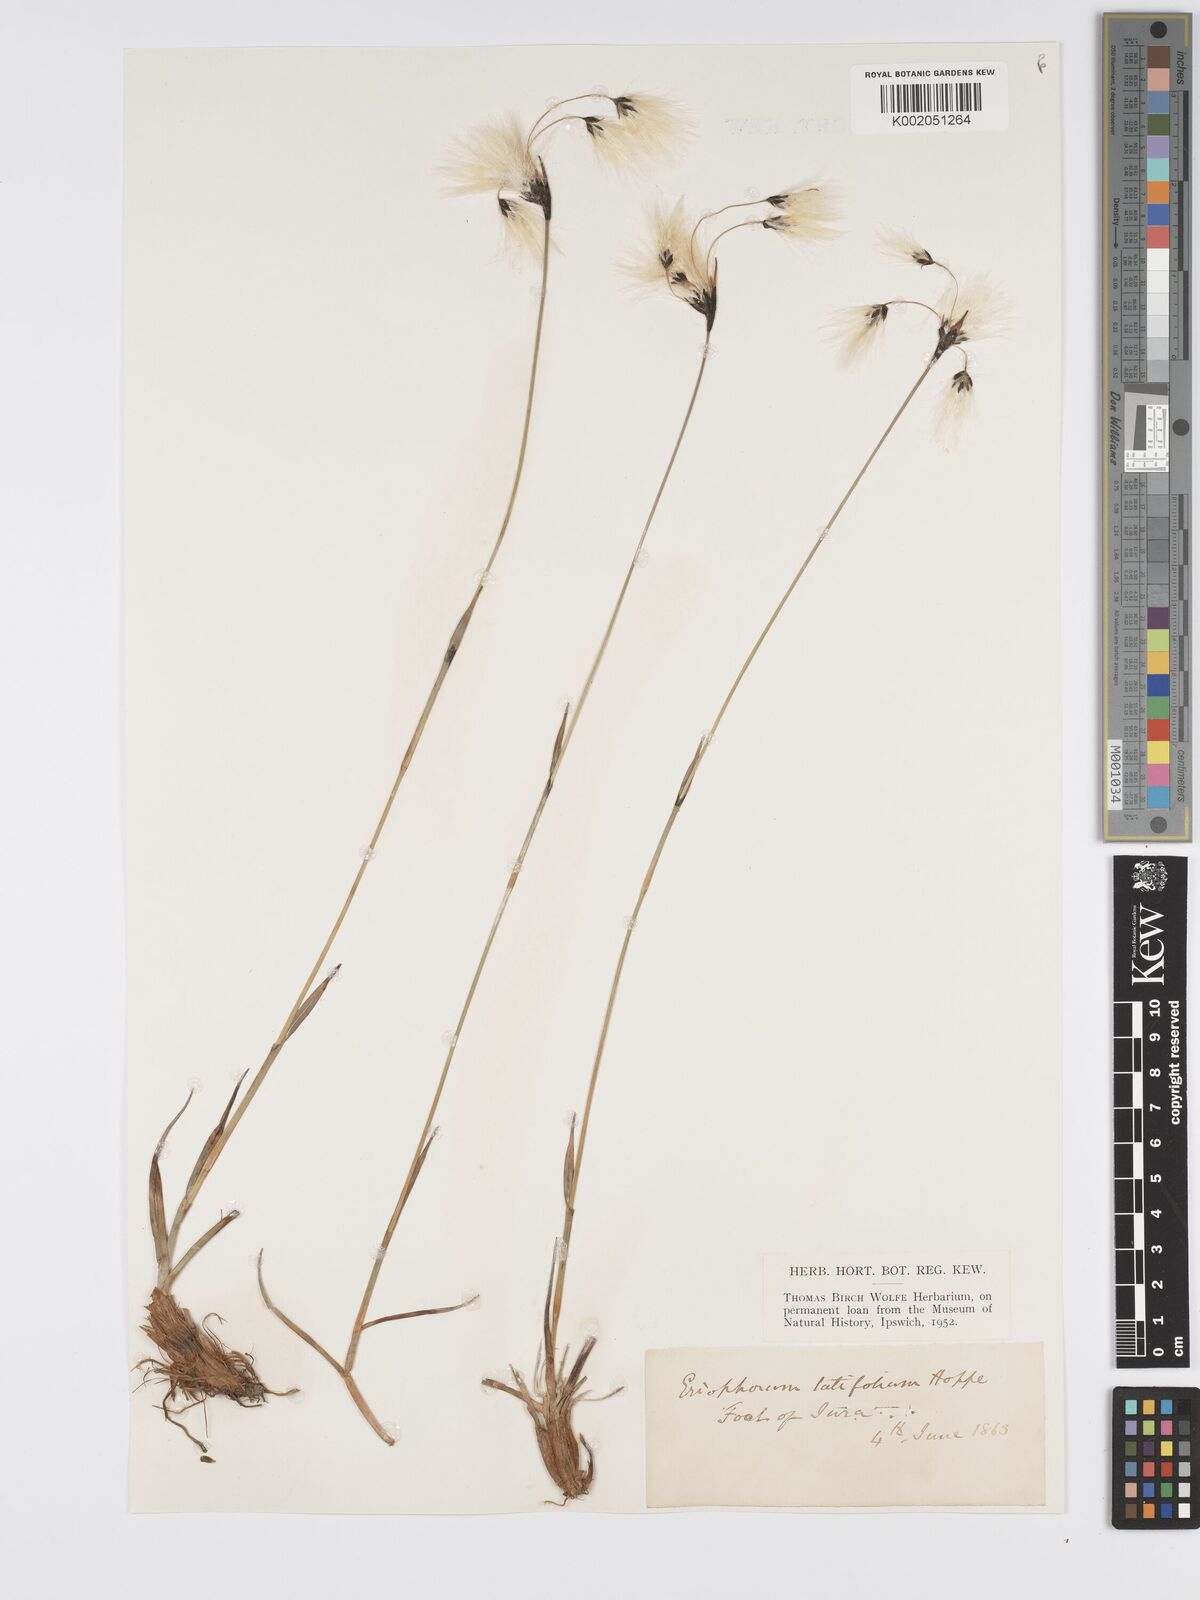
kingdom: Plantae
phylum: Tracheophyta
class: Liliopsida
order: Poales
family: Cyperaceae
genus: Eriophorum
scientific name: Eriophorum latifolium
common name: Broad-leaved cottongrass
